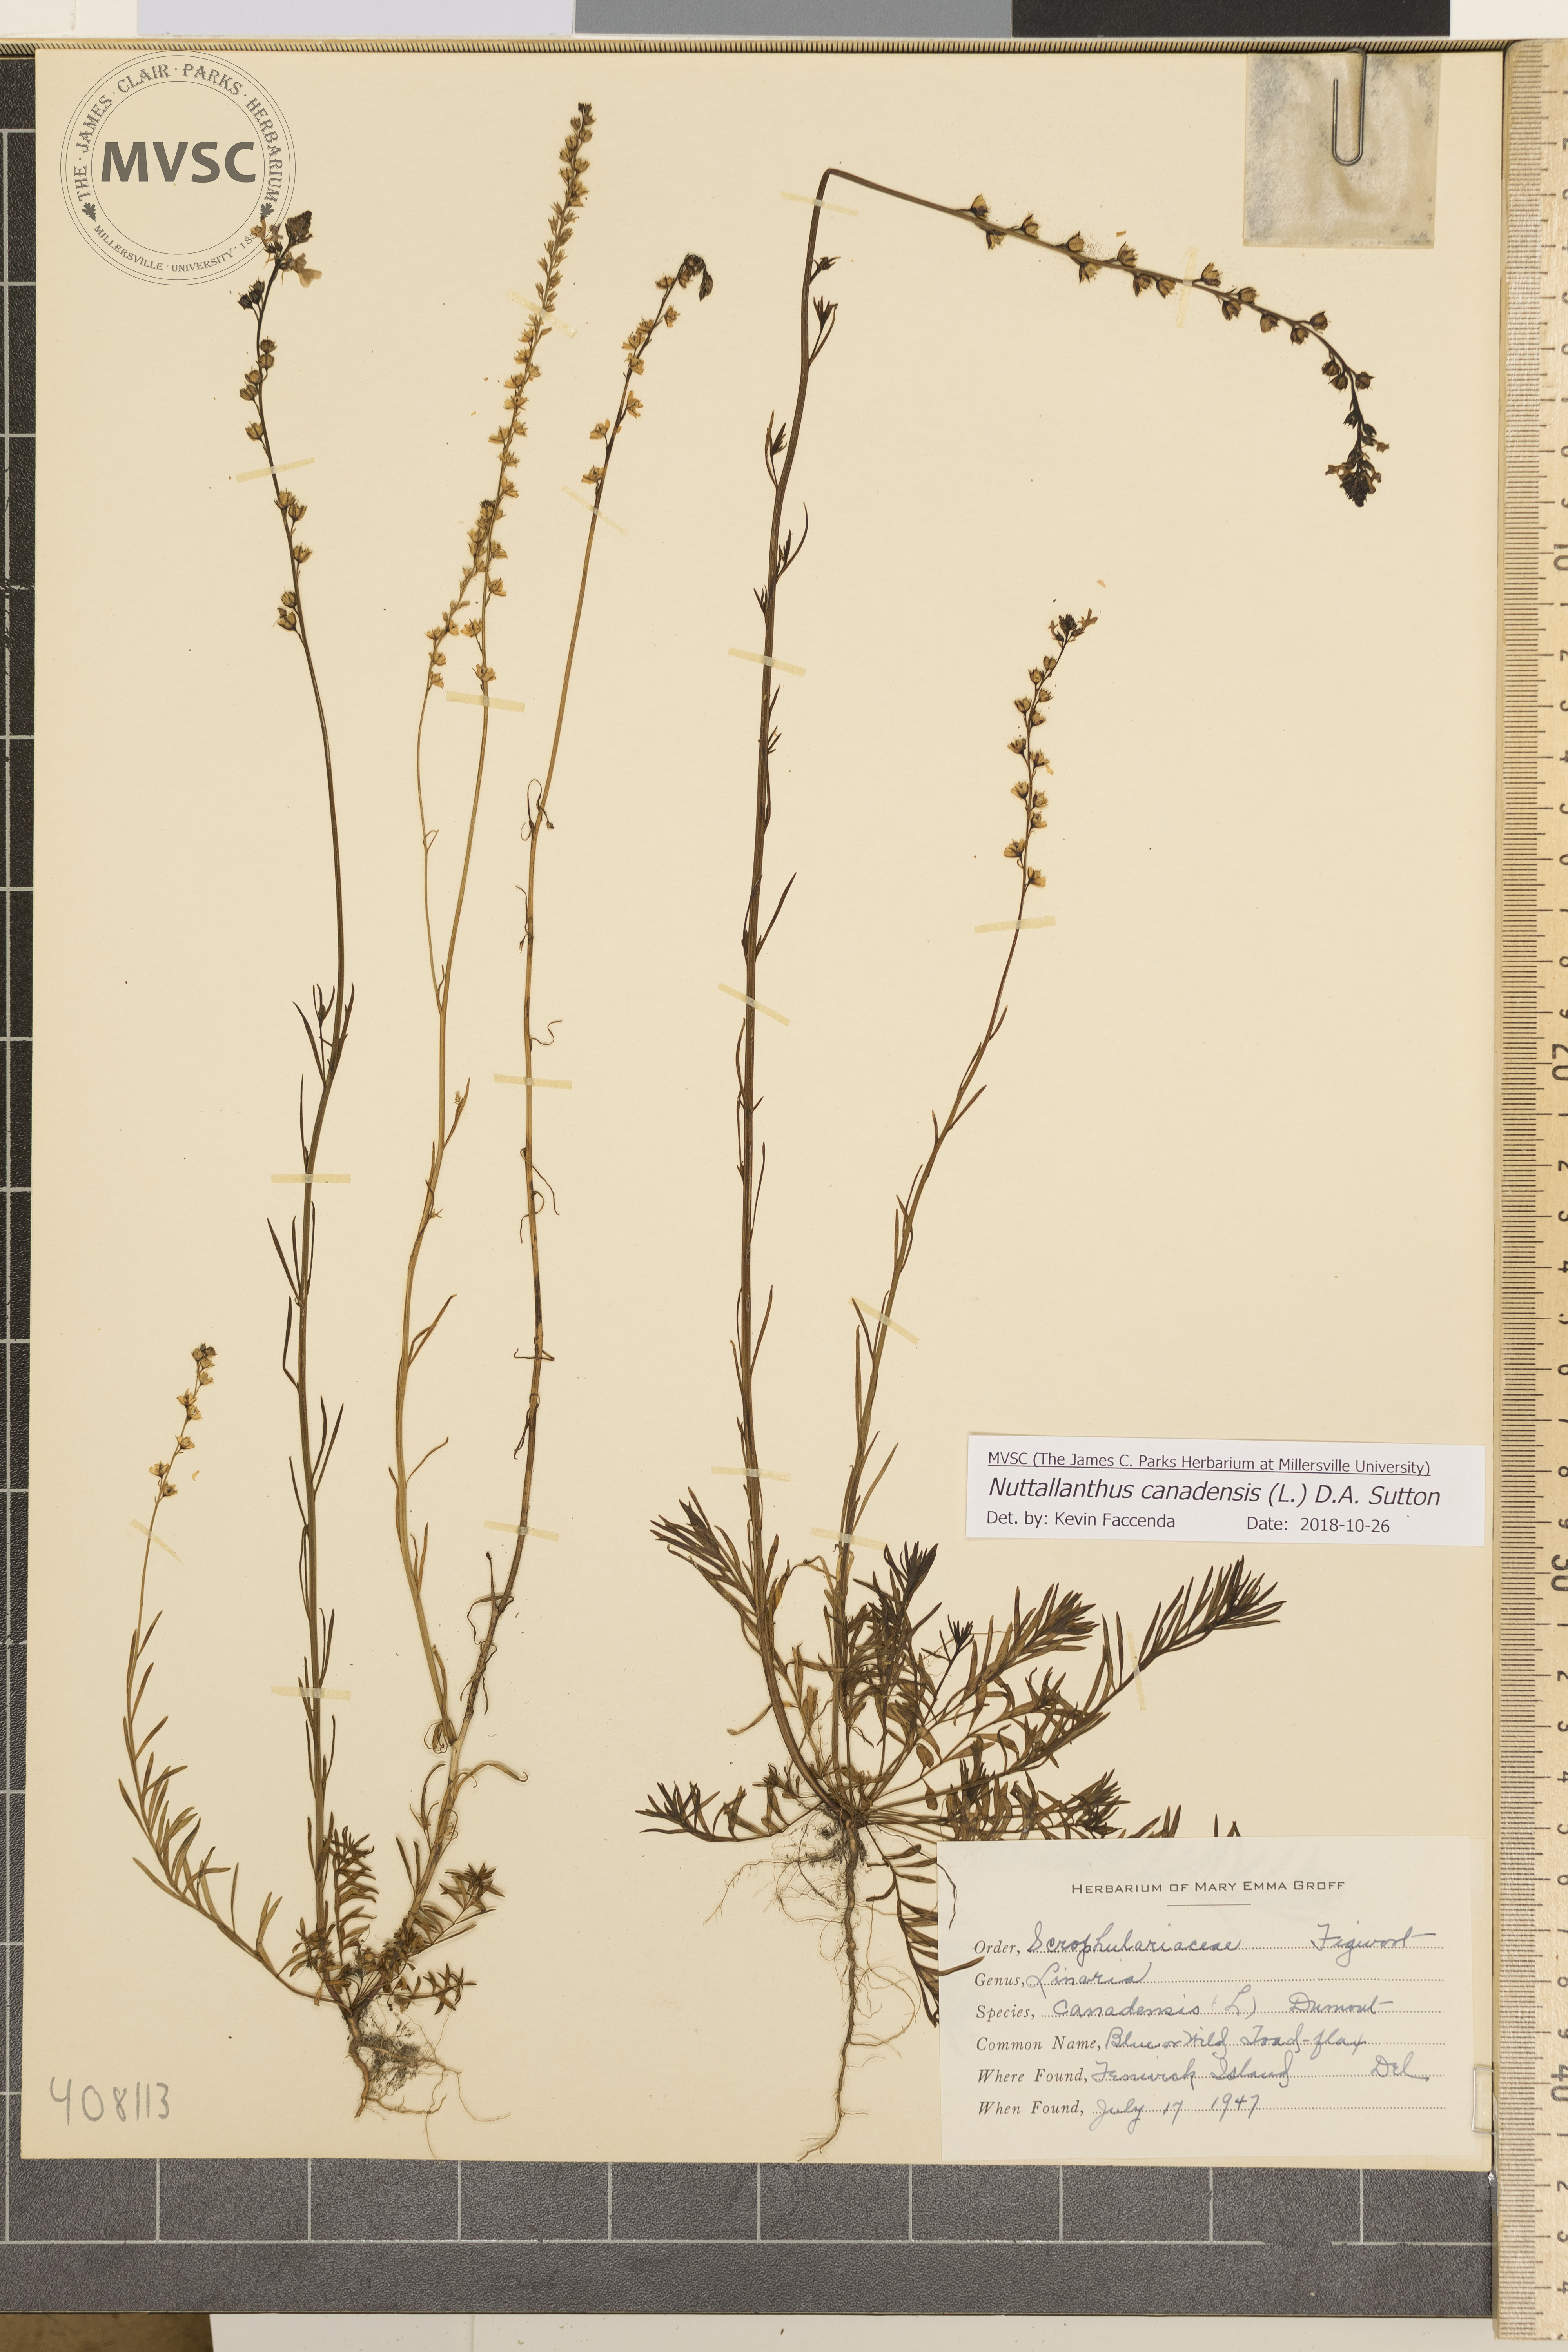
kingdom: Plantae
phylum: Tracheophyta
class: Magnoliopsida
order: Lamiales
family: Plantaginaceae
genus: Nuttallanthus
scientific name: Nuttallanthus canadensis
